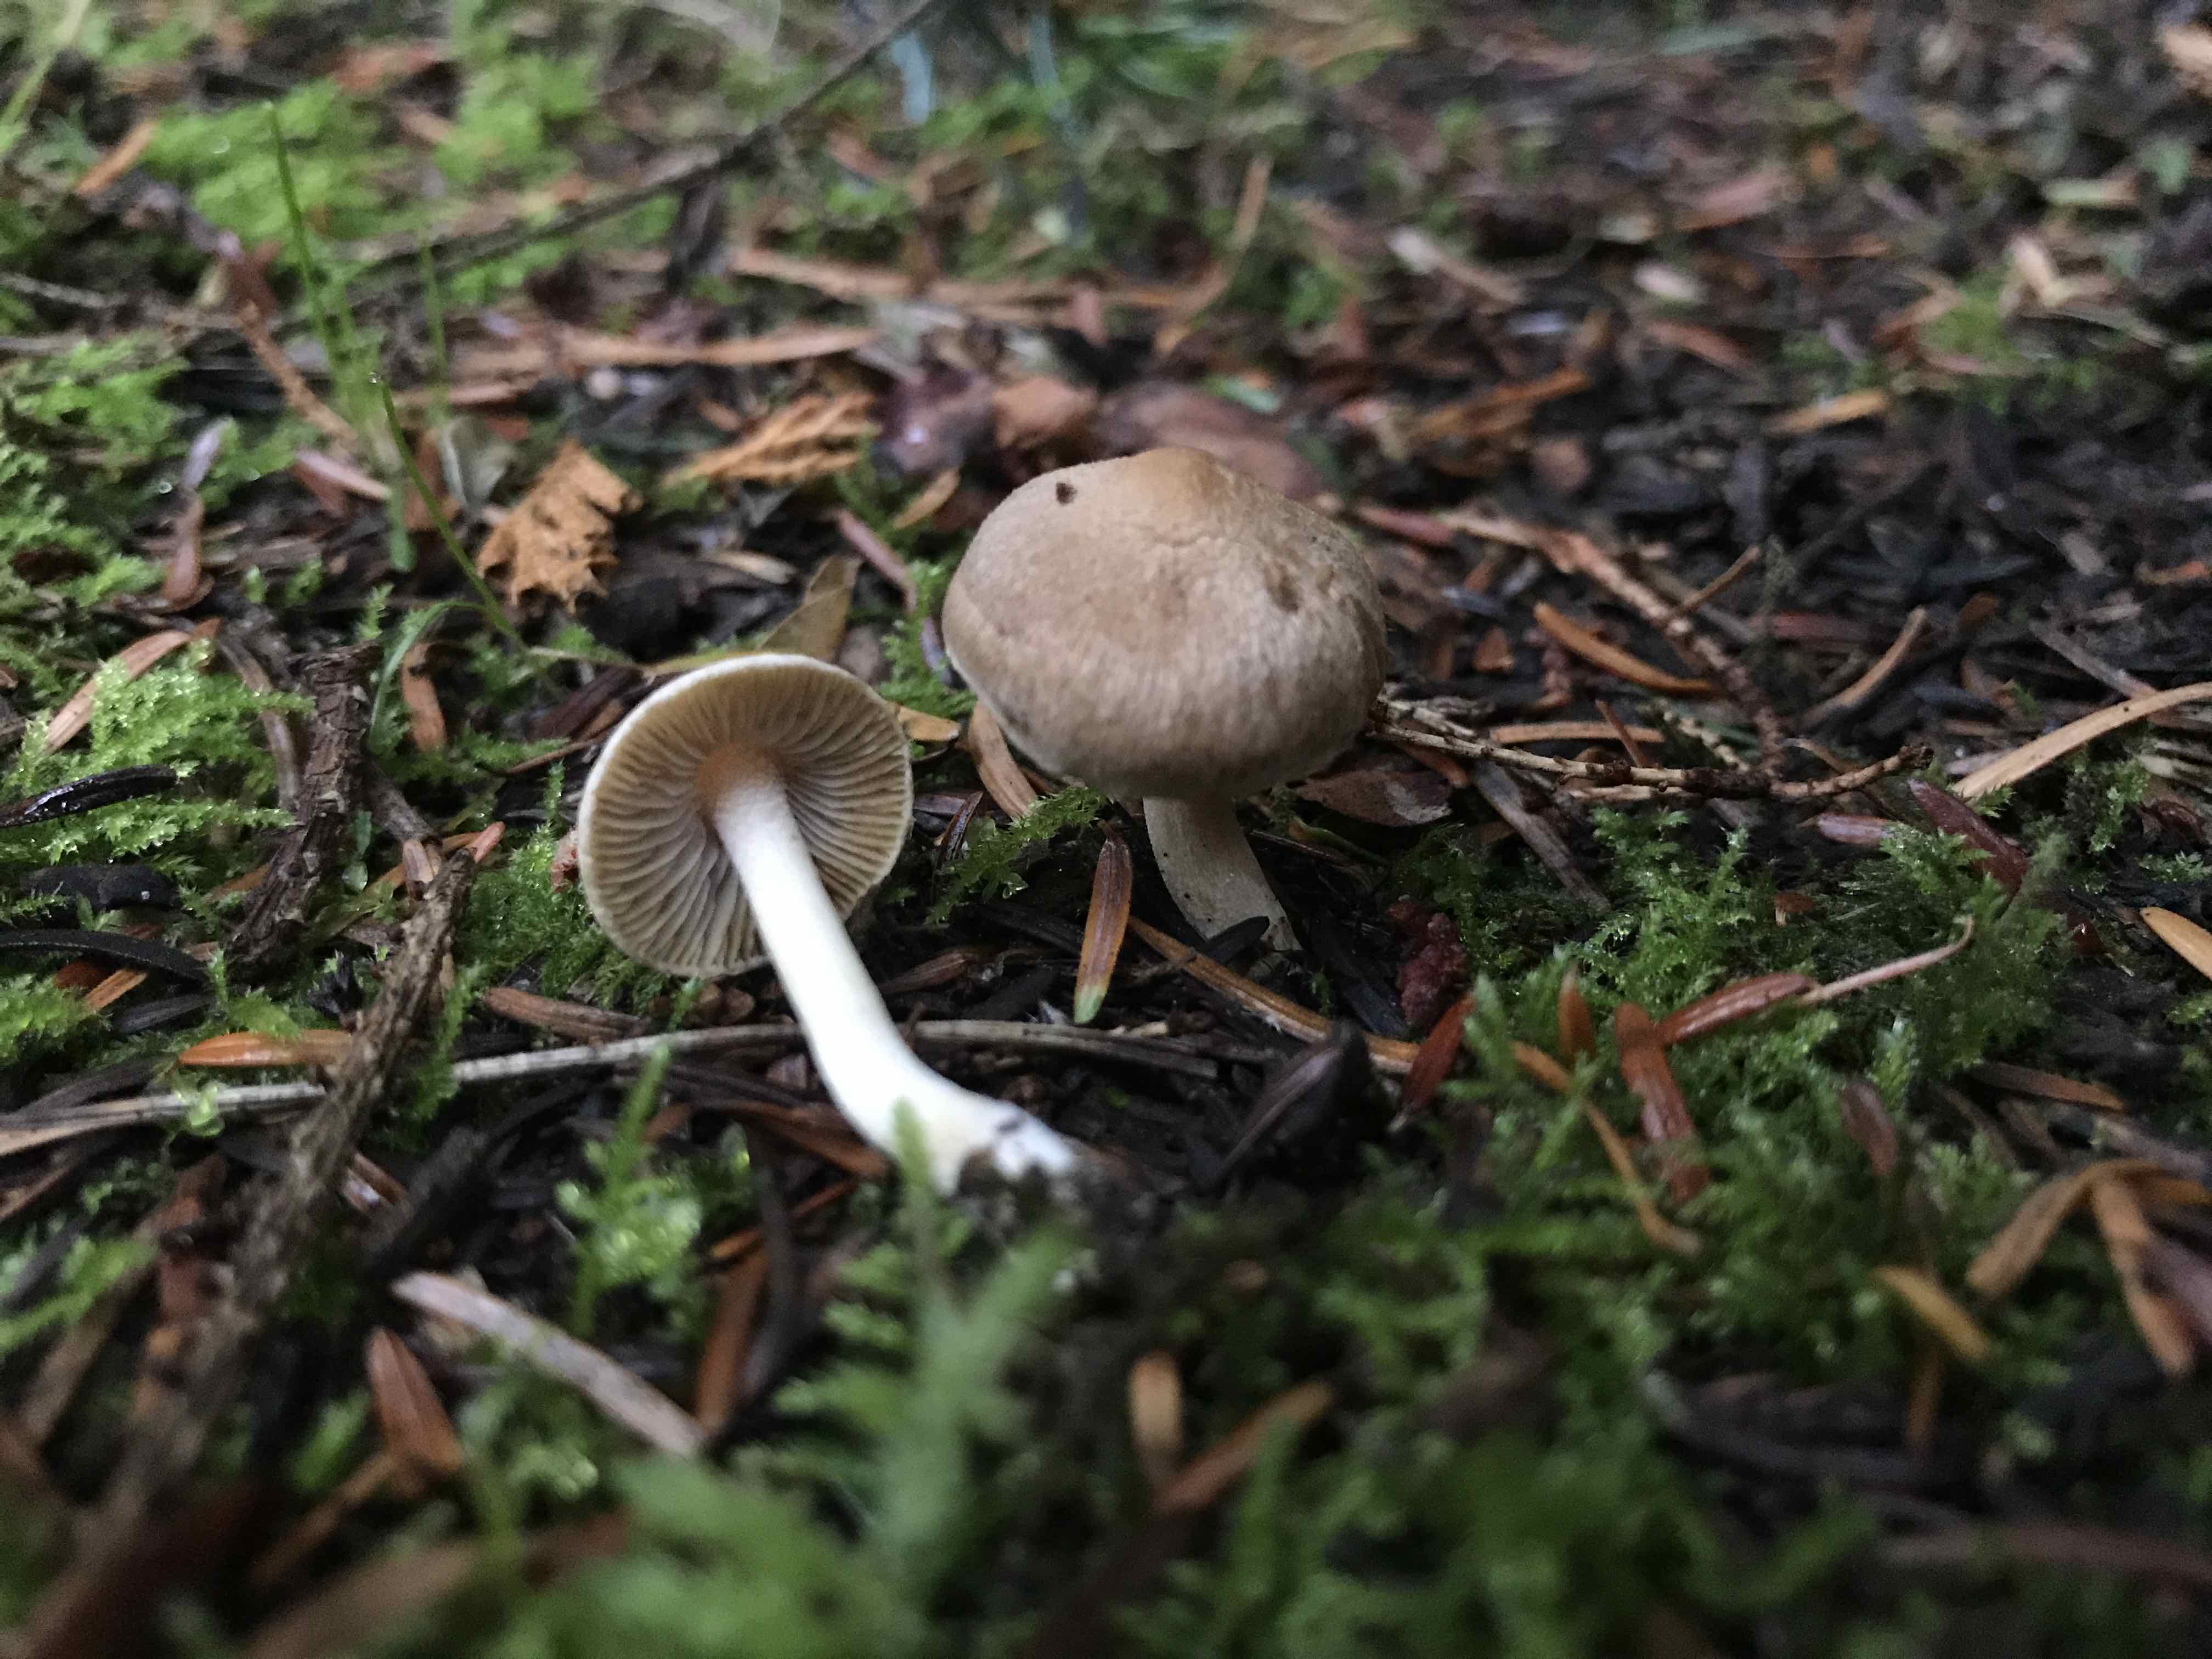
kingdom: Fungi
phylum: Basidiomycota
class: Agaricomycetes
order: Agaricales
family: Inocybaceae
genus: Inocybe
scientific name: Inocybe
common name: trævlhat
